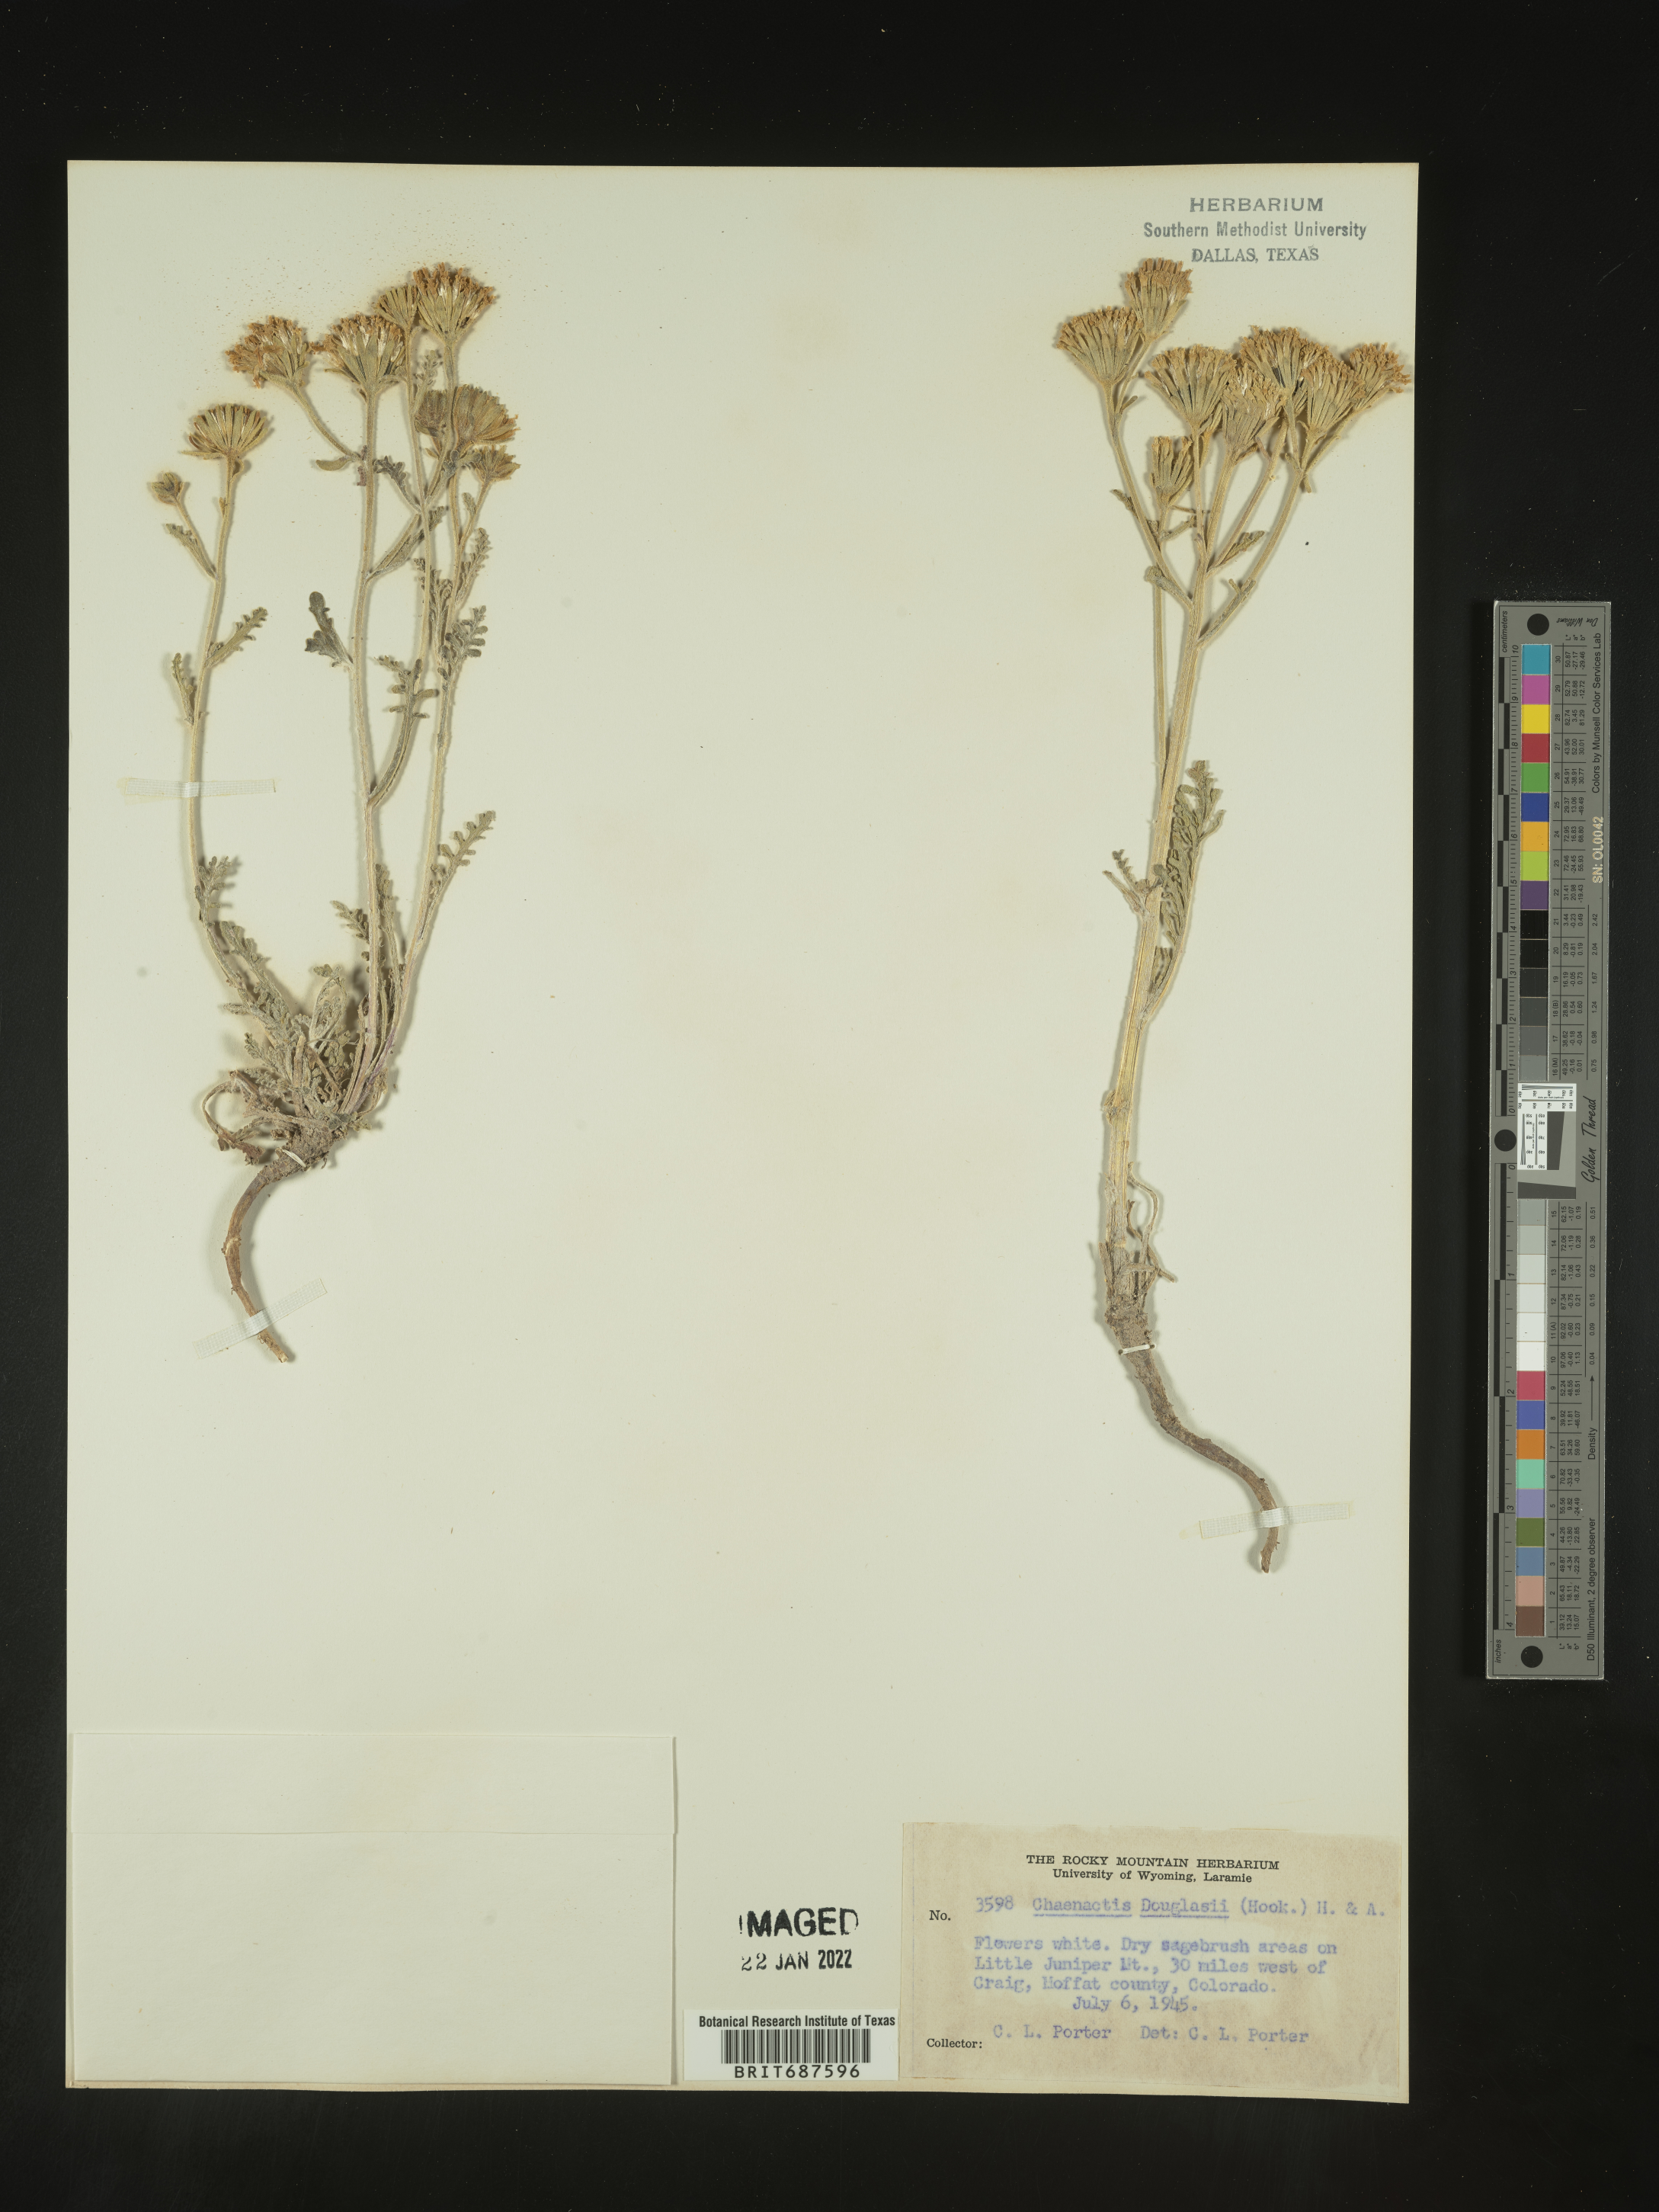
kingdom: Plantae
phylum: Tracheophyta
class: Magnoliopsida
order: Asterales
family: Asteraceae
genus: Chaenactis
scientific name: Chaenactis douglasii
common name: Hoary pincushion
